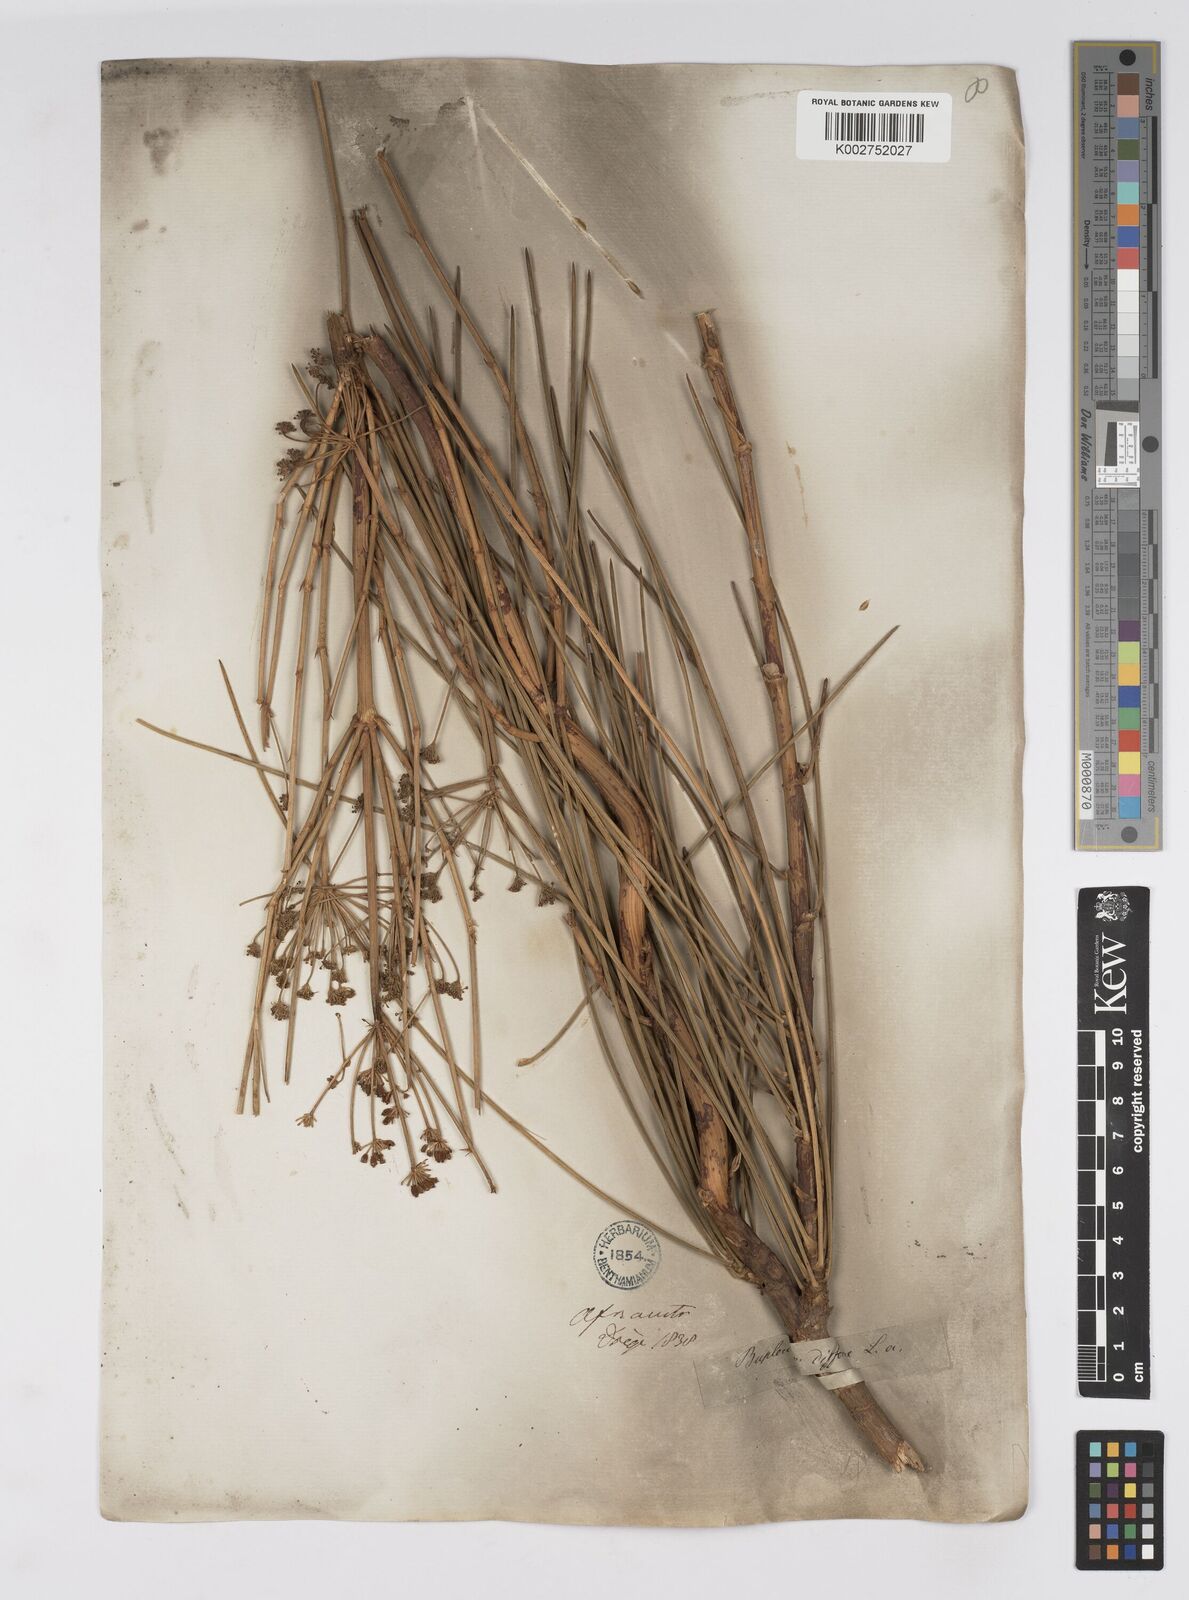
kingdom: Plantae
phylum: Tracheophyta
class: Magnoliopsida
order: Apiales
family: Apiaceae
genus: Anginon
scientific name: Anginon difforme
